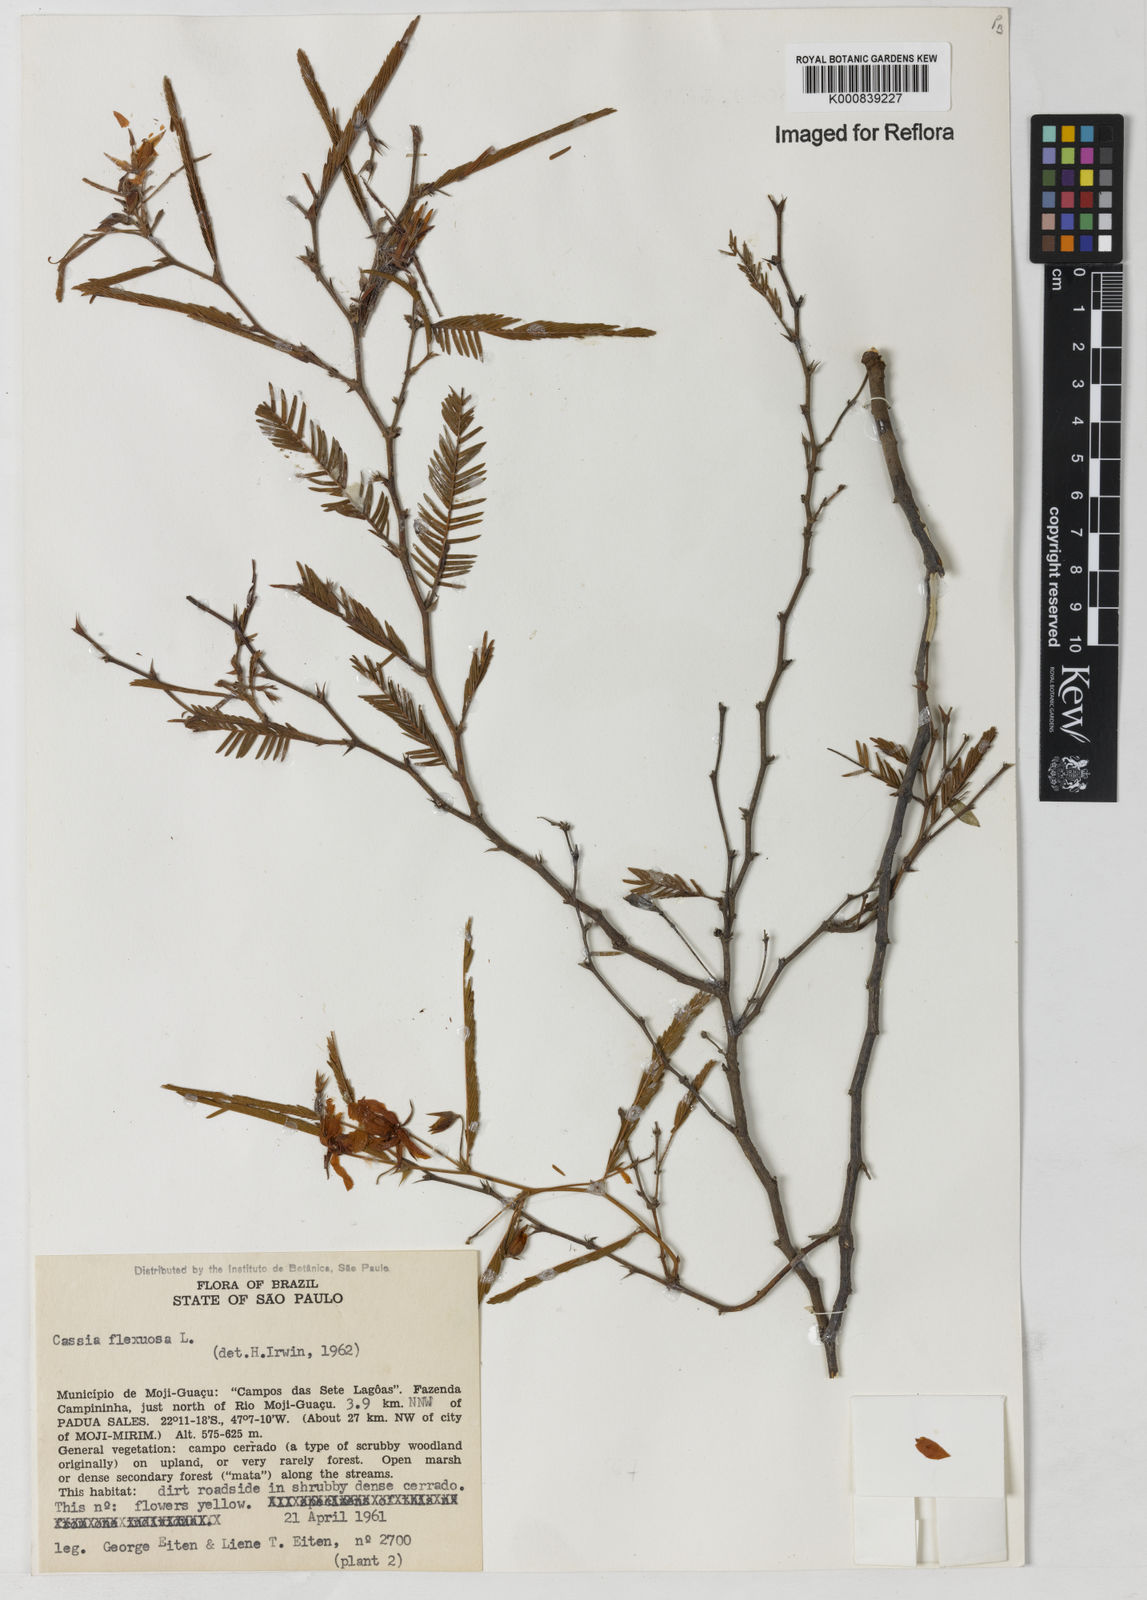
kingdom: Plantae
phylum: Tracheophyta
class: Magnoliopsida
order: Fabales
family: Fabaceae
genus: Chamaecrista
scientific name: Chamaecrista flexuosa
